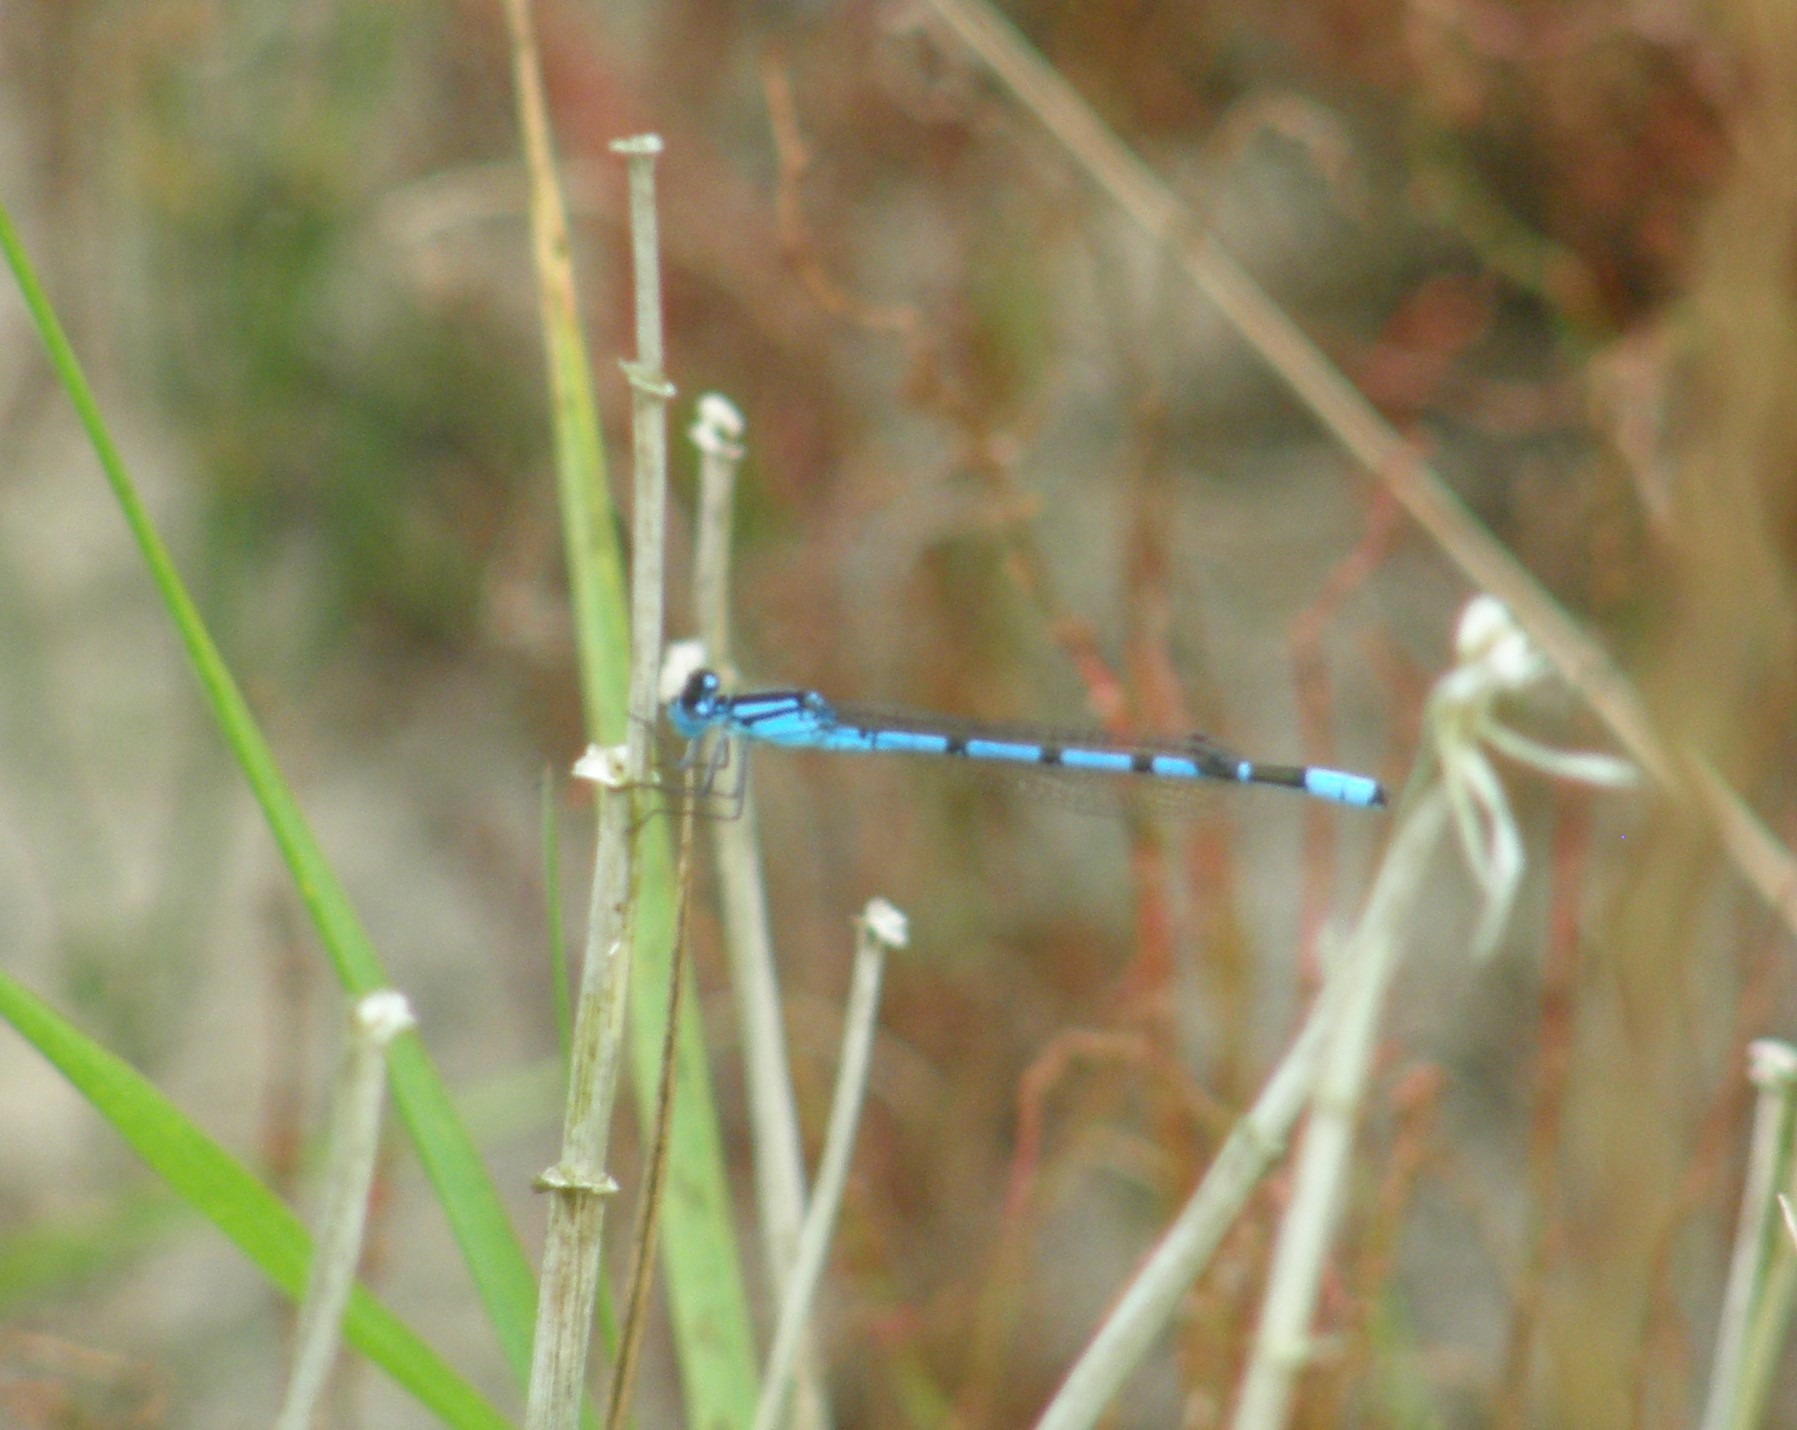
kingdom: Animalia
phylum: Arthropoda
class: Insecta
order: Odonata
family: Coenagrionidae
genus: Enallagma
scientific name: Enallagma cyathigerum
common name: Almindelig vandnymfe
